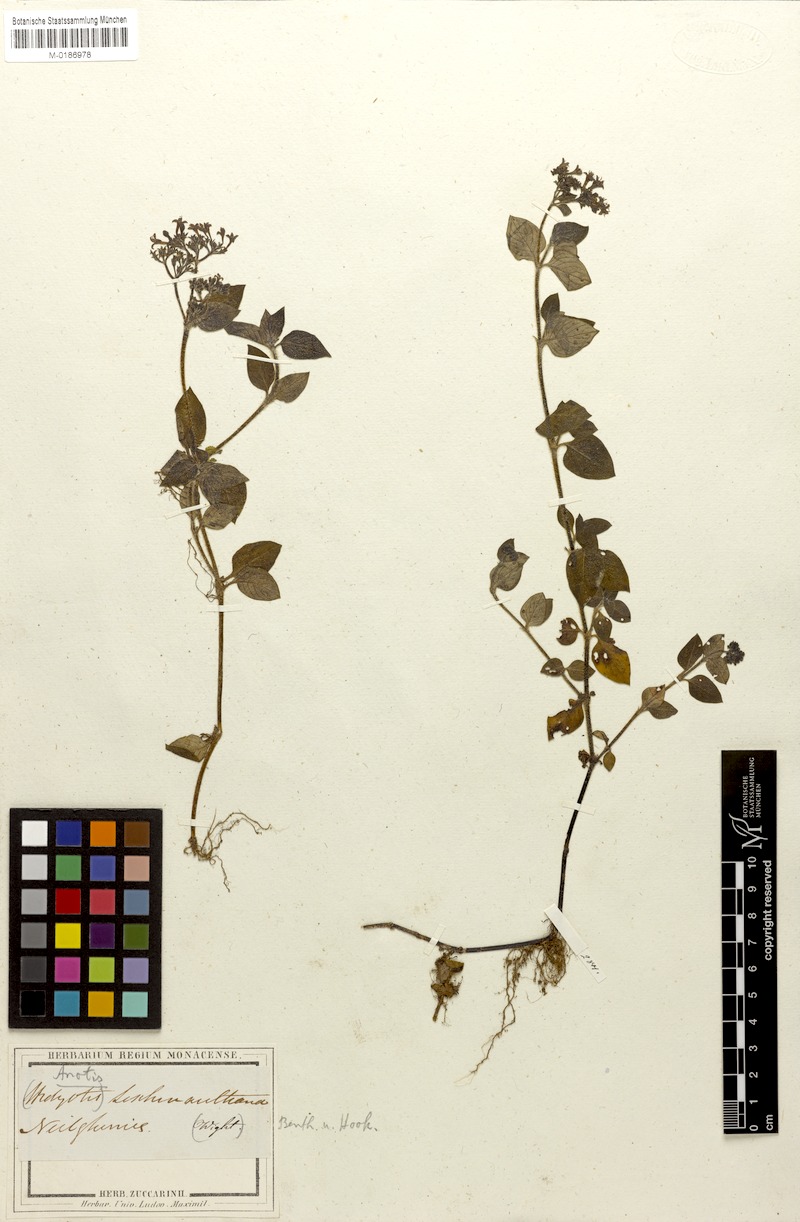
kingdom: Plantae
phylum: Tracheophyta
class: Magnoliopsida
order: Gentianales
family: Rubiaceae
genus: Neanotis
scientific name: Neanotis indica
